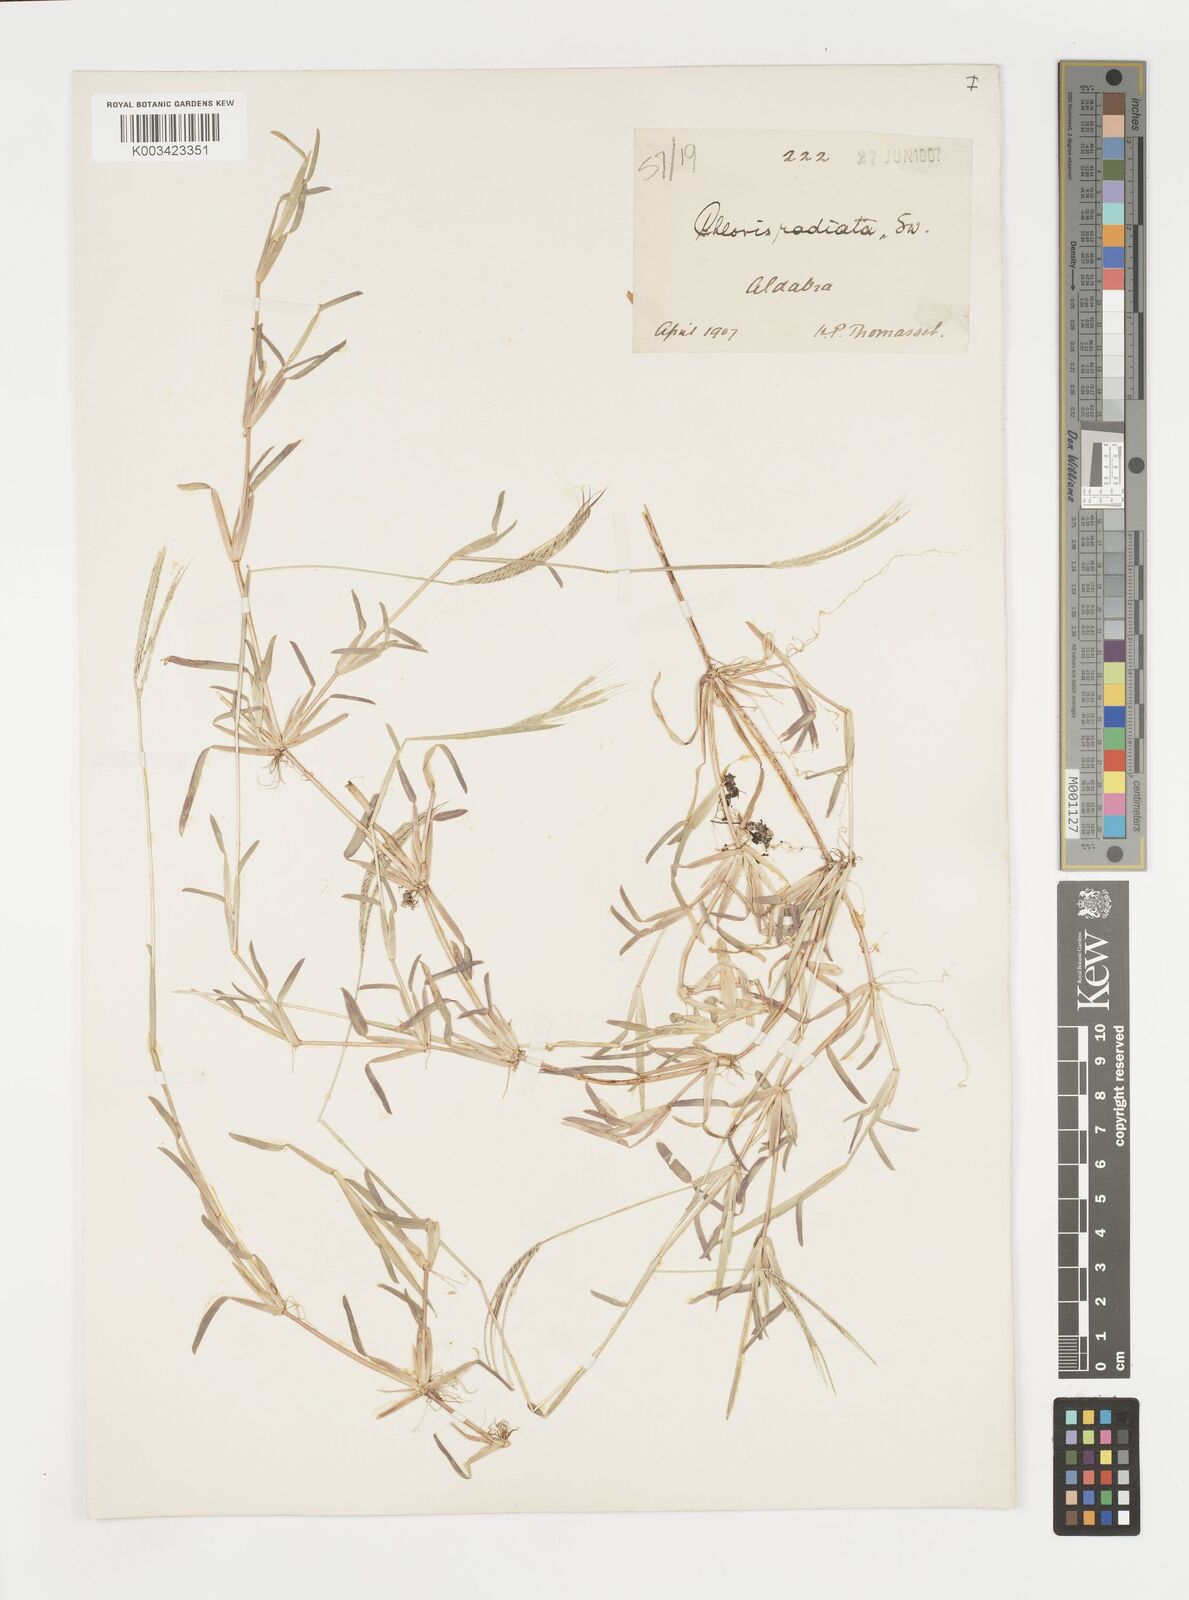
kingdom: Plantae
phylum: Tracheophyta
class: Liliopsida
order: Poales
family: Poaceae
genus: Daknopholis
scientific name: Daknopholis boivinii
